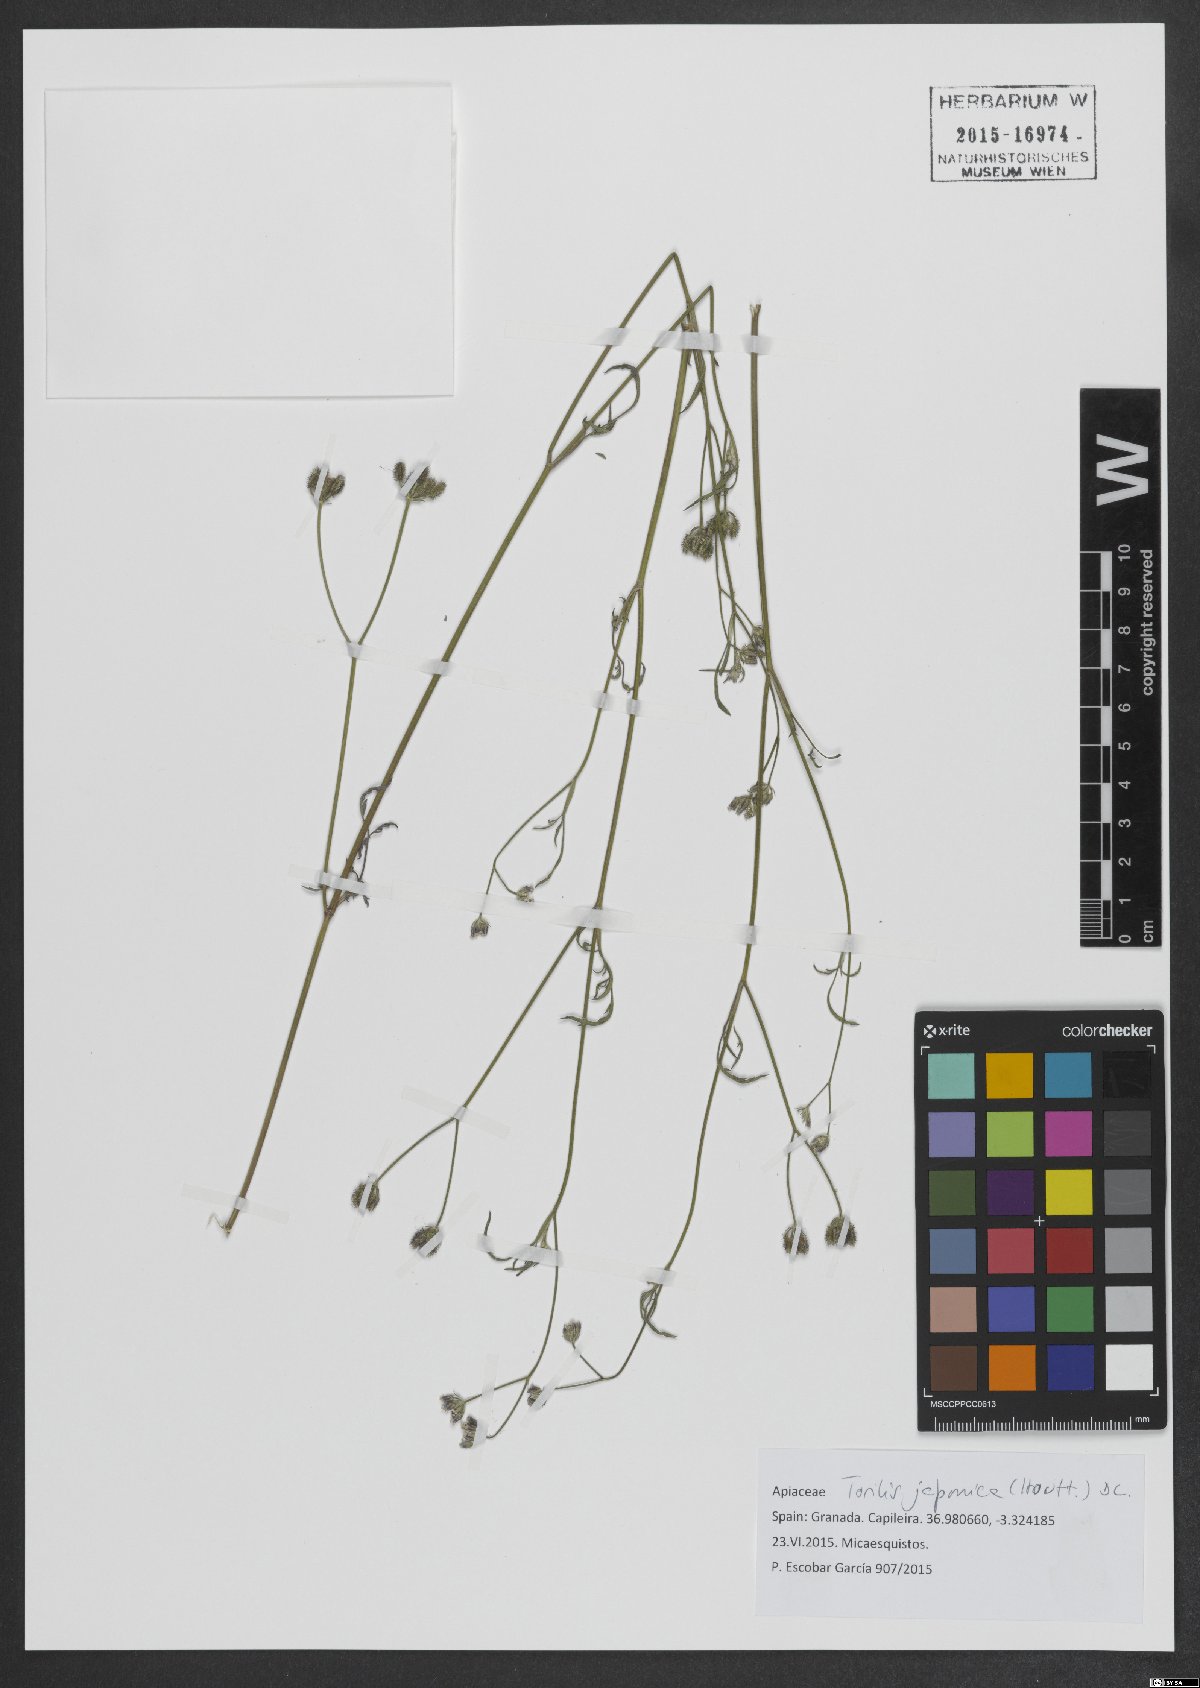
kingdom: Plantae
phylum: Tracheophyta
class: Magnoliopsida
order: Apiales
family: Apiaceae
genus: Torilis
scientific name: Torilis japonica
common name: Upright hedge-parsley
